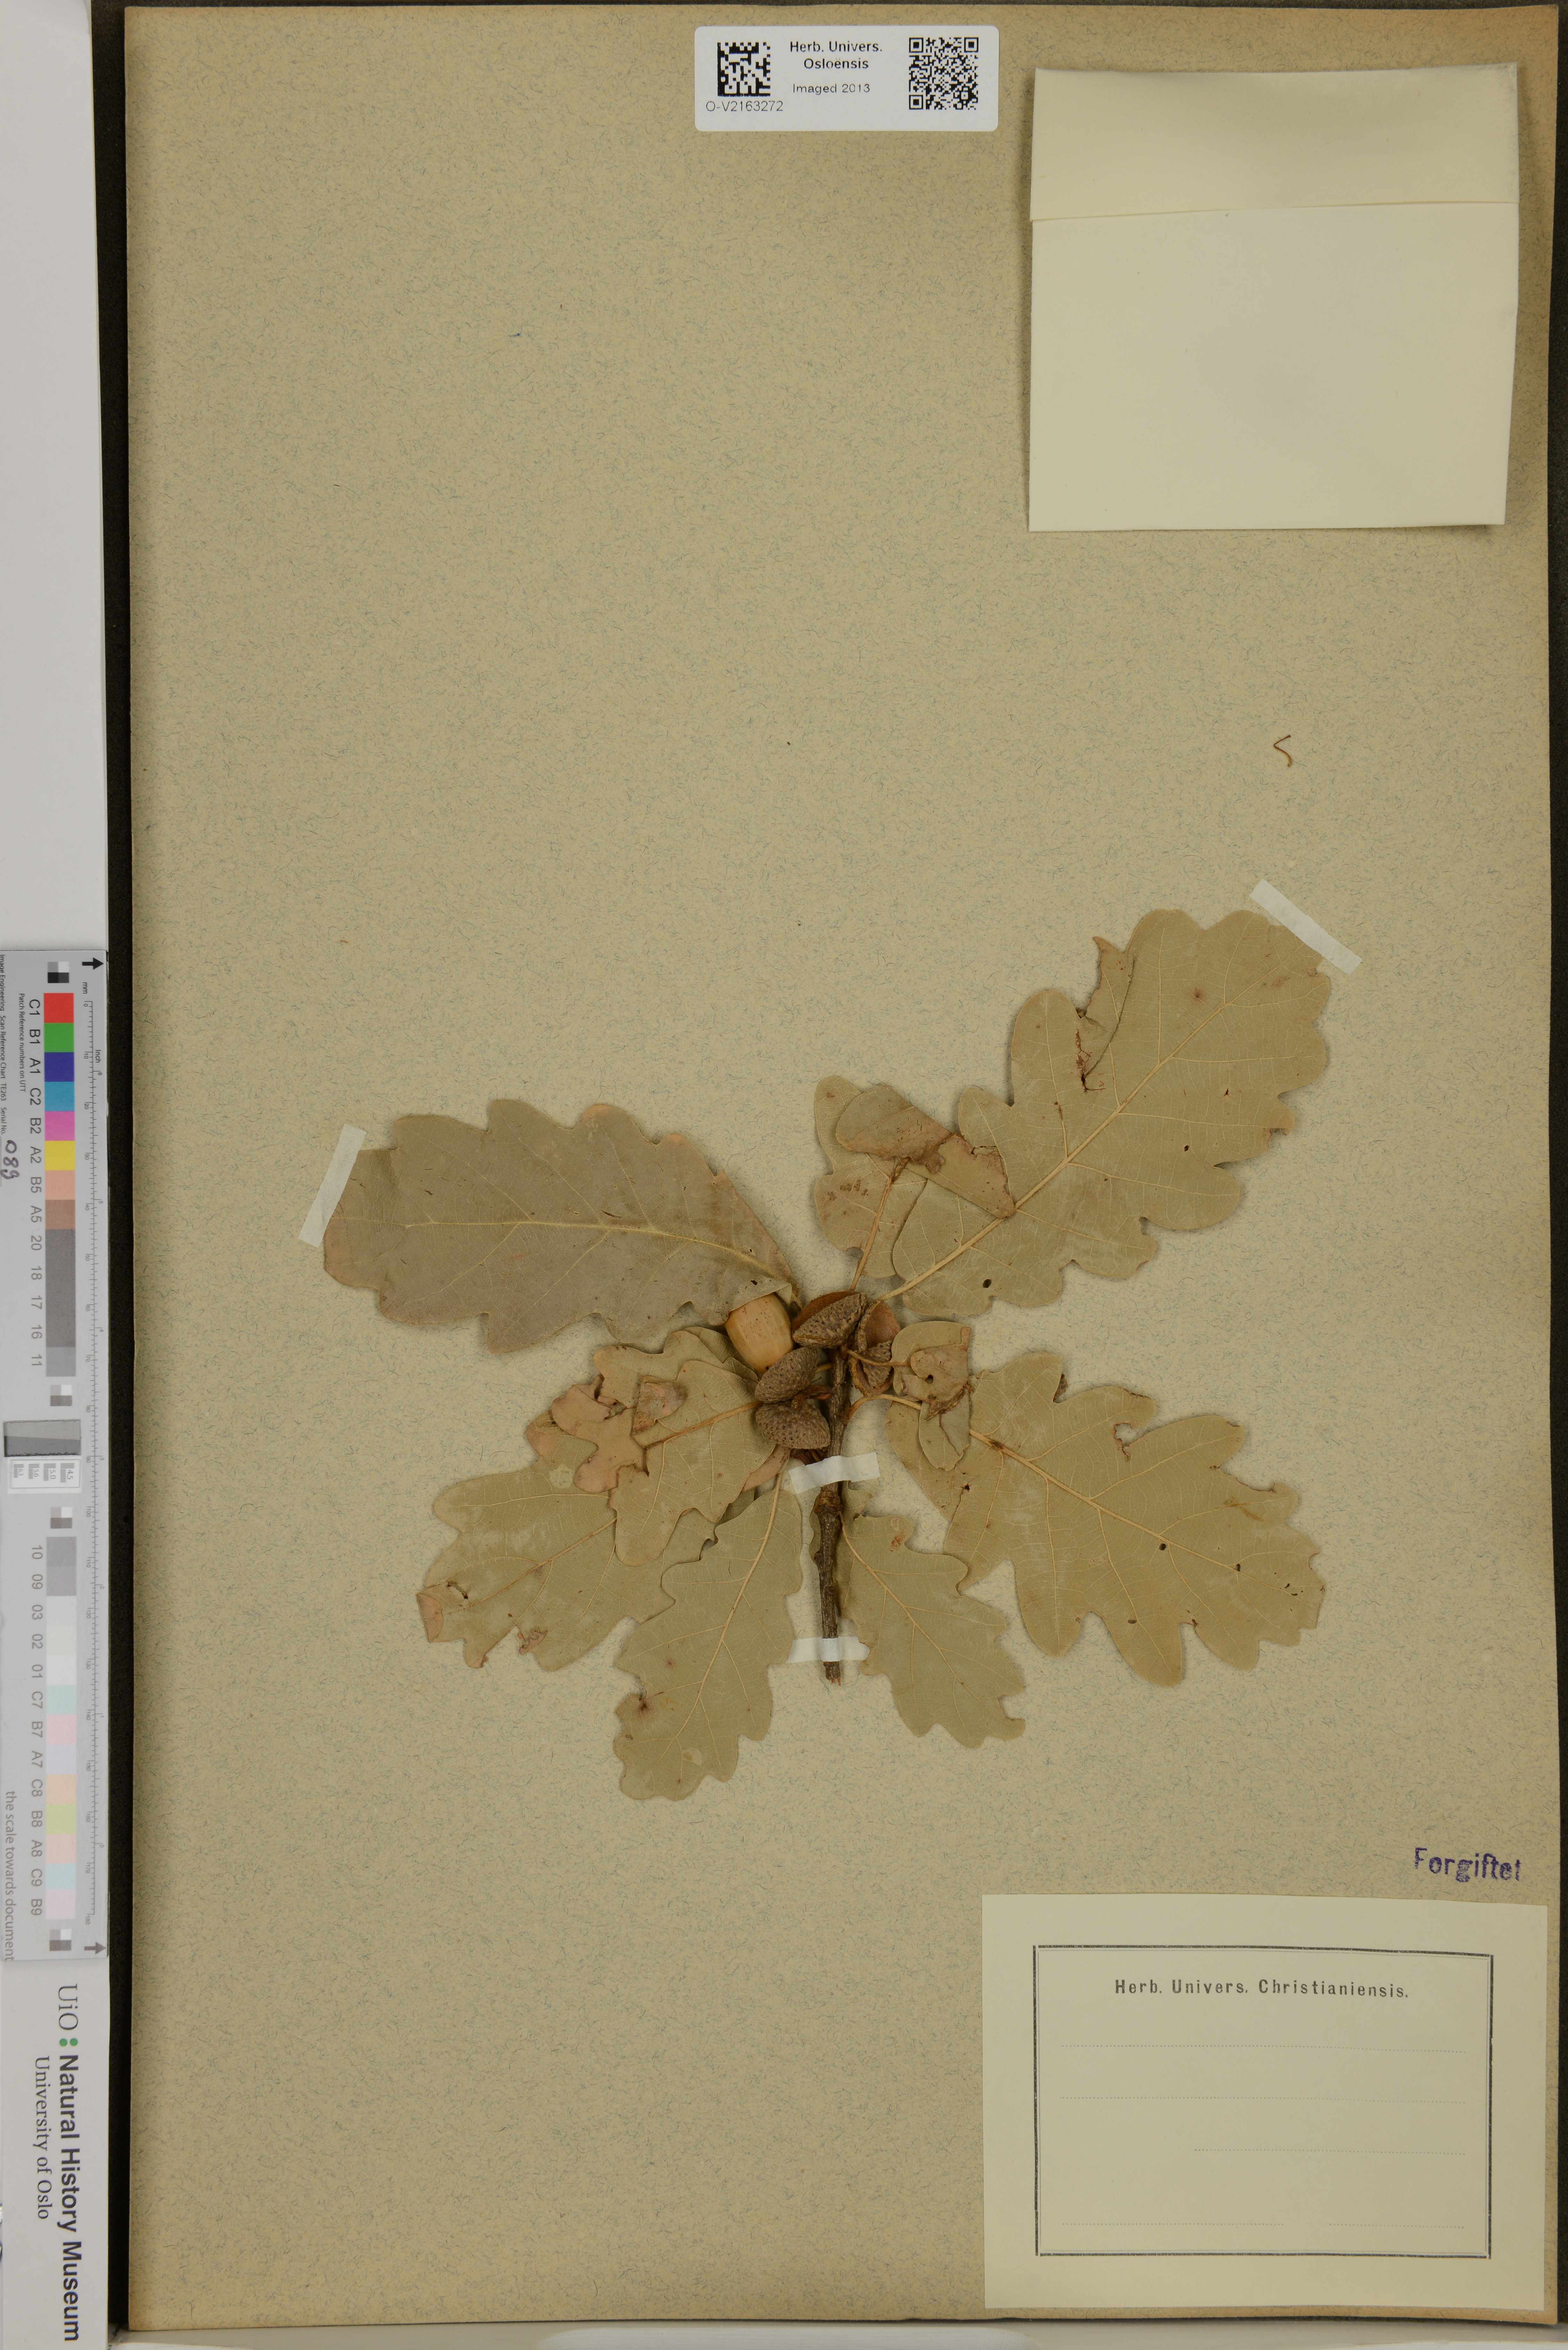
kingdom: Plantae
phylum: Tracheophyta
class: Magnoliopsida
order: Fagales
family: Fagaceae
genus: Quercus
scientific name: Quercus tabajdiana
